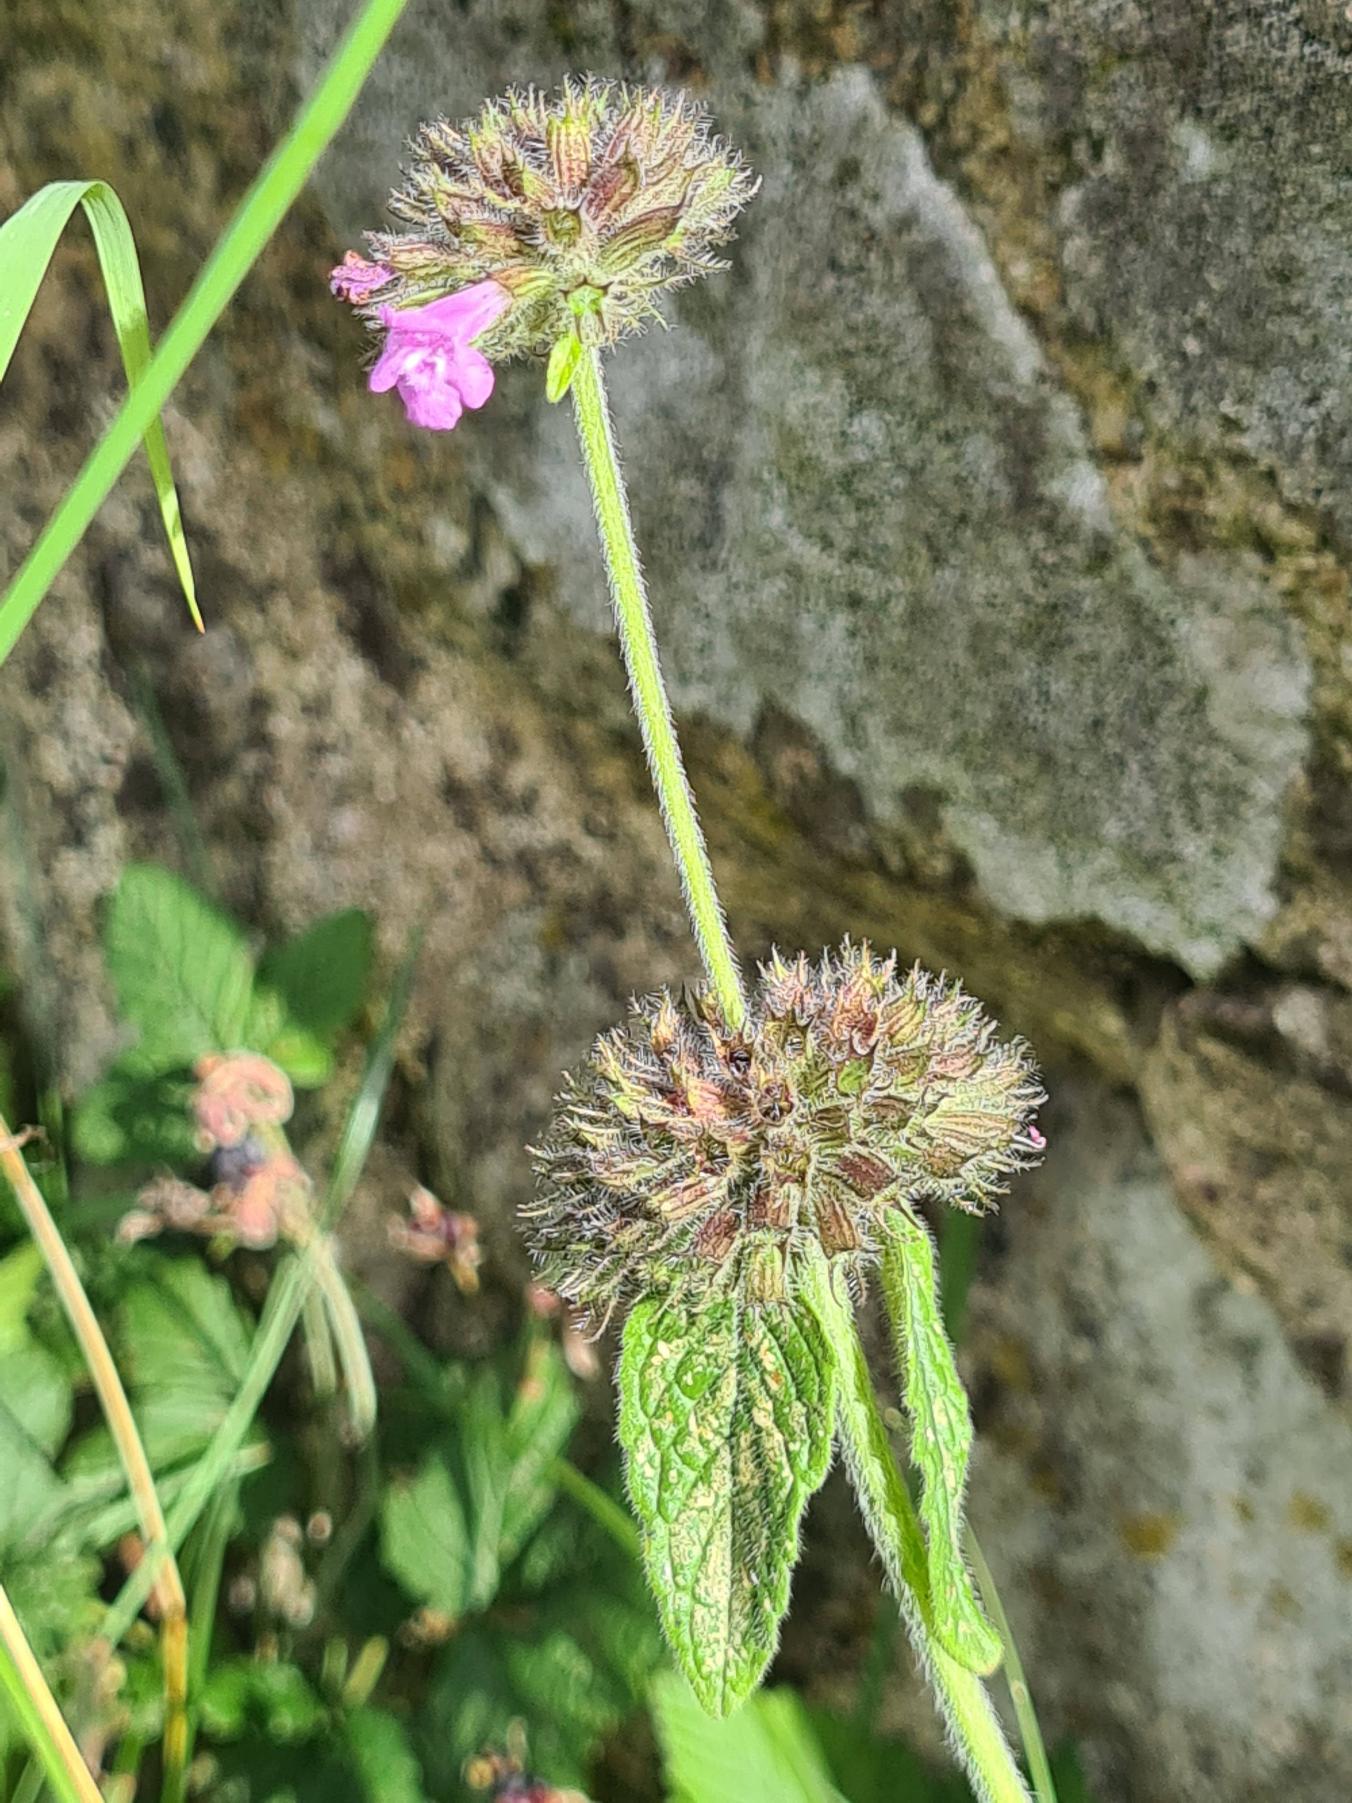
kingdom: Plantae
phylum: Tracheophyta
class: Magnoliopsida
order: Lamiales
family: Lamiaceae
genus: Clinopodium
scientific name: Clinopodium vulgare
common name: Kransbørste
